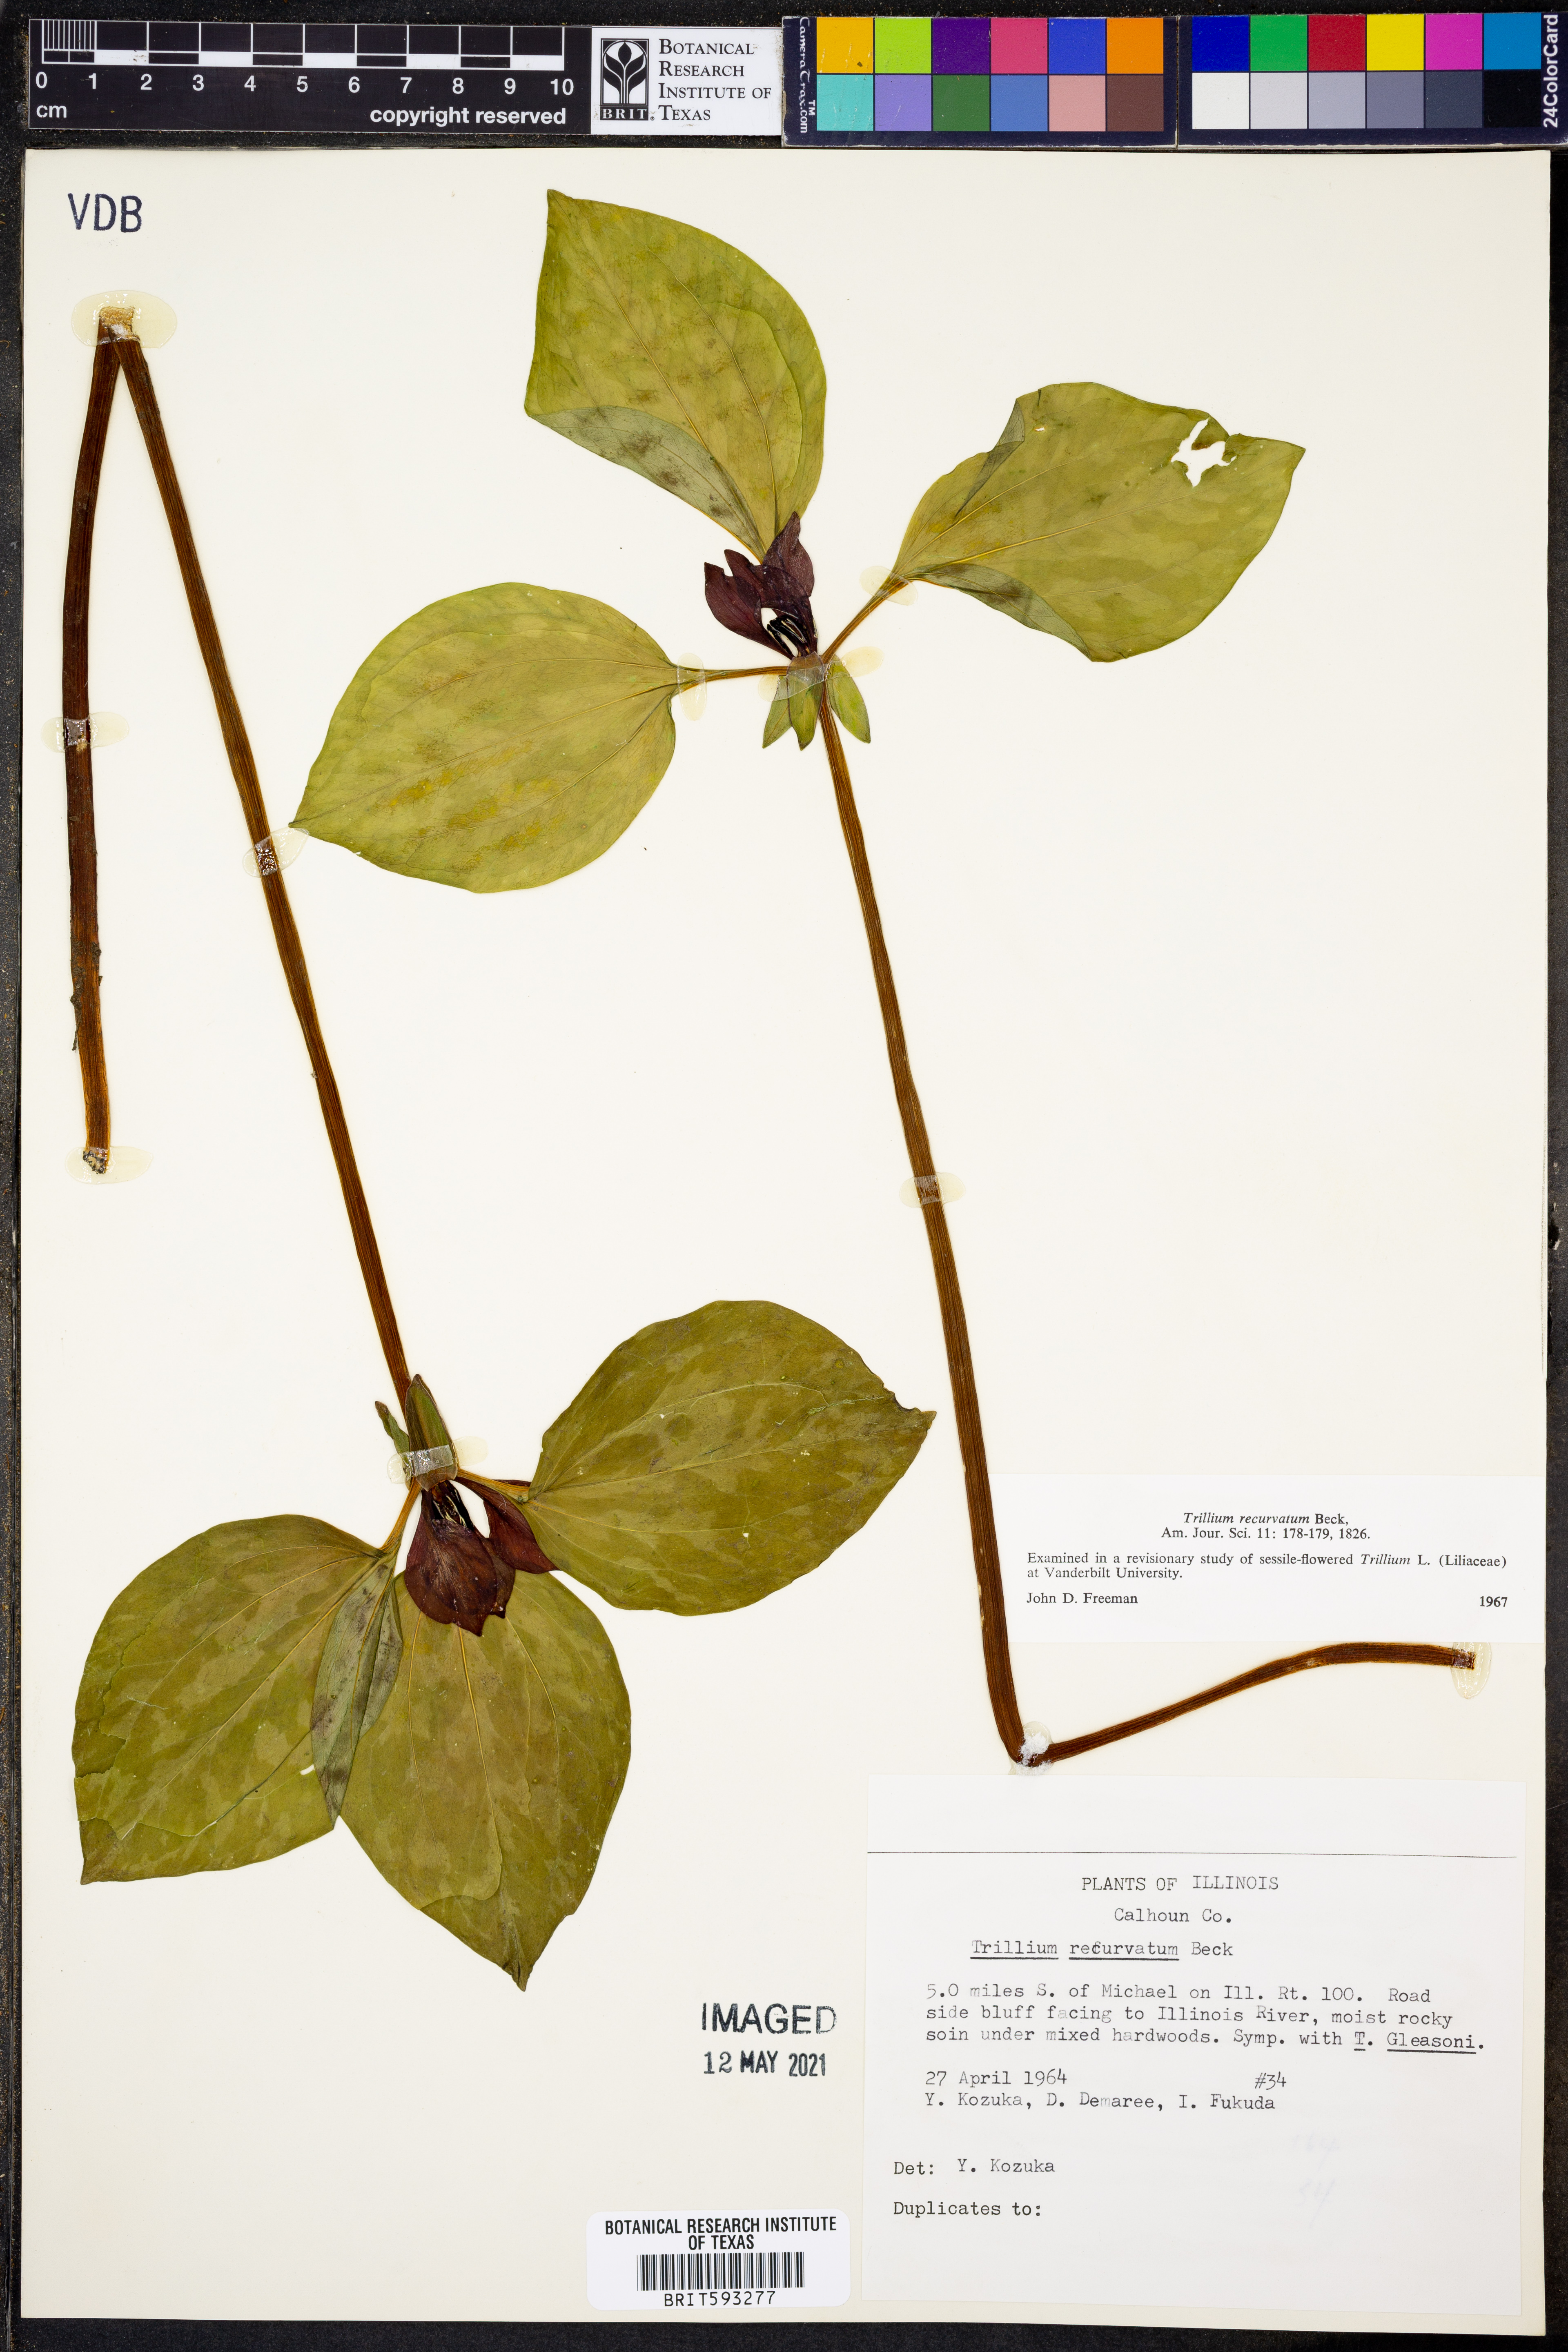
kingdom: Plantae
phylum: Tracheophyta
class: Liliopsida
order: Liliales
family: Melanthiaceae
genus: Trillium
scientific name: Trillium recurvatum
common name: Bloody butcher
